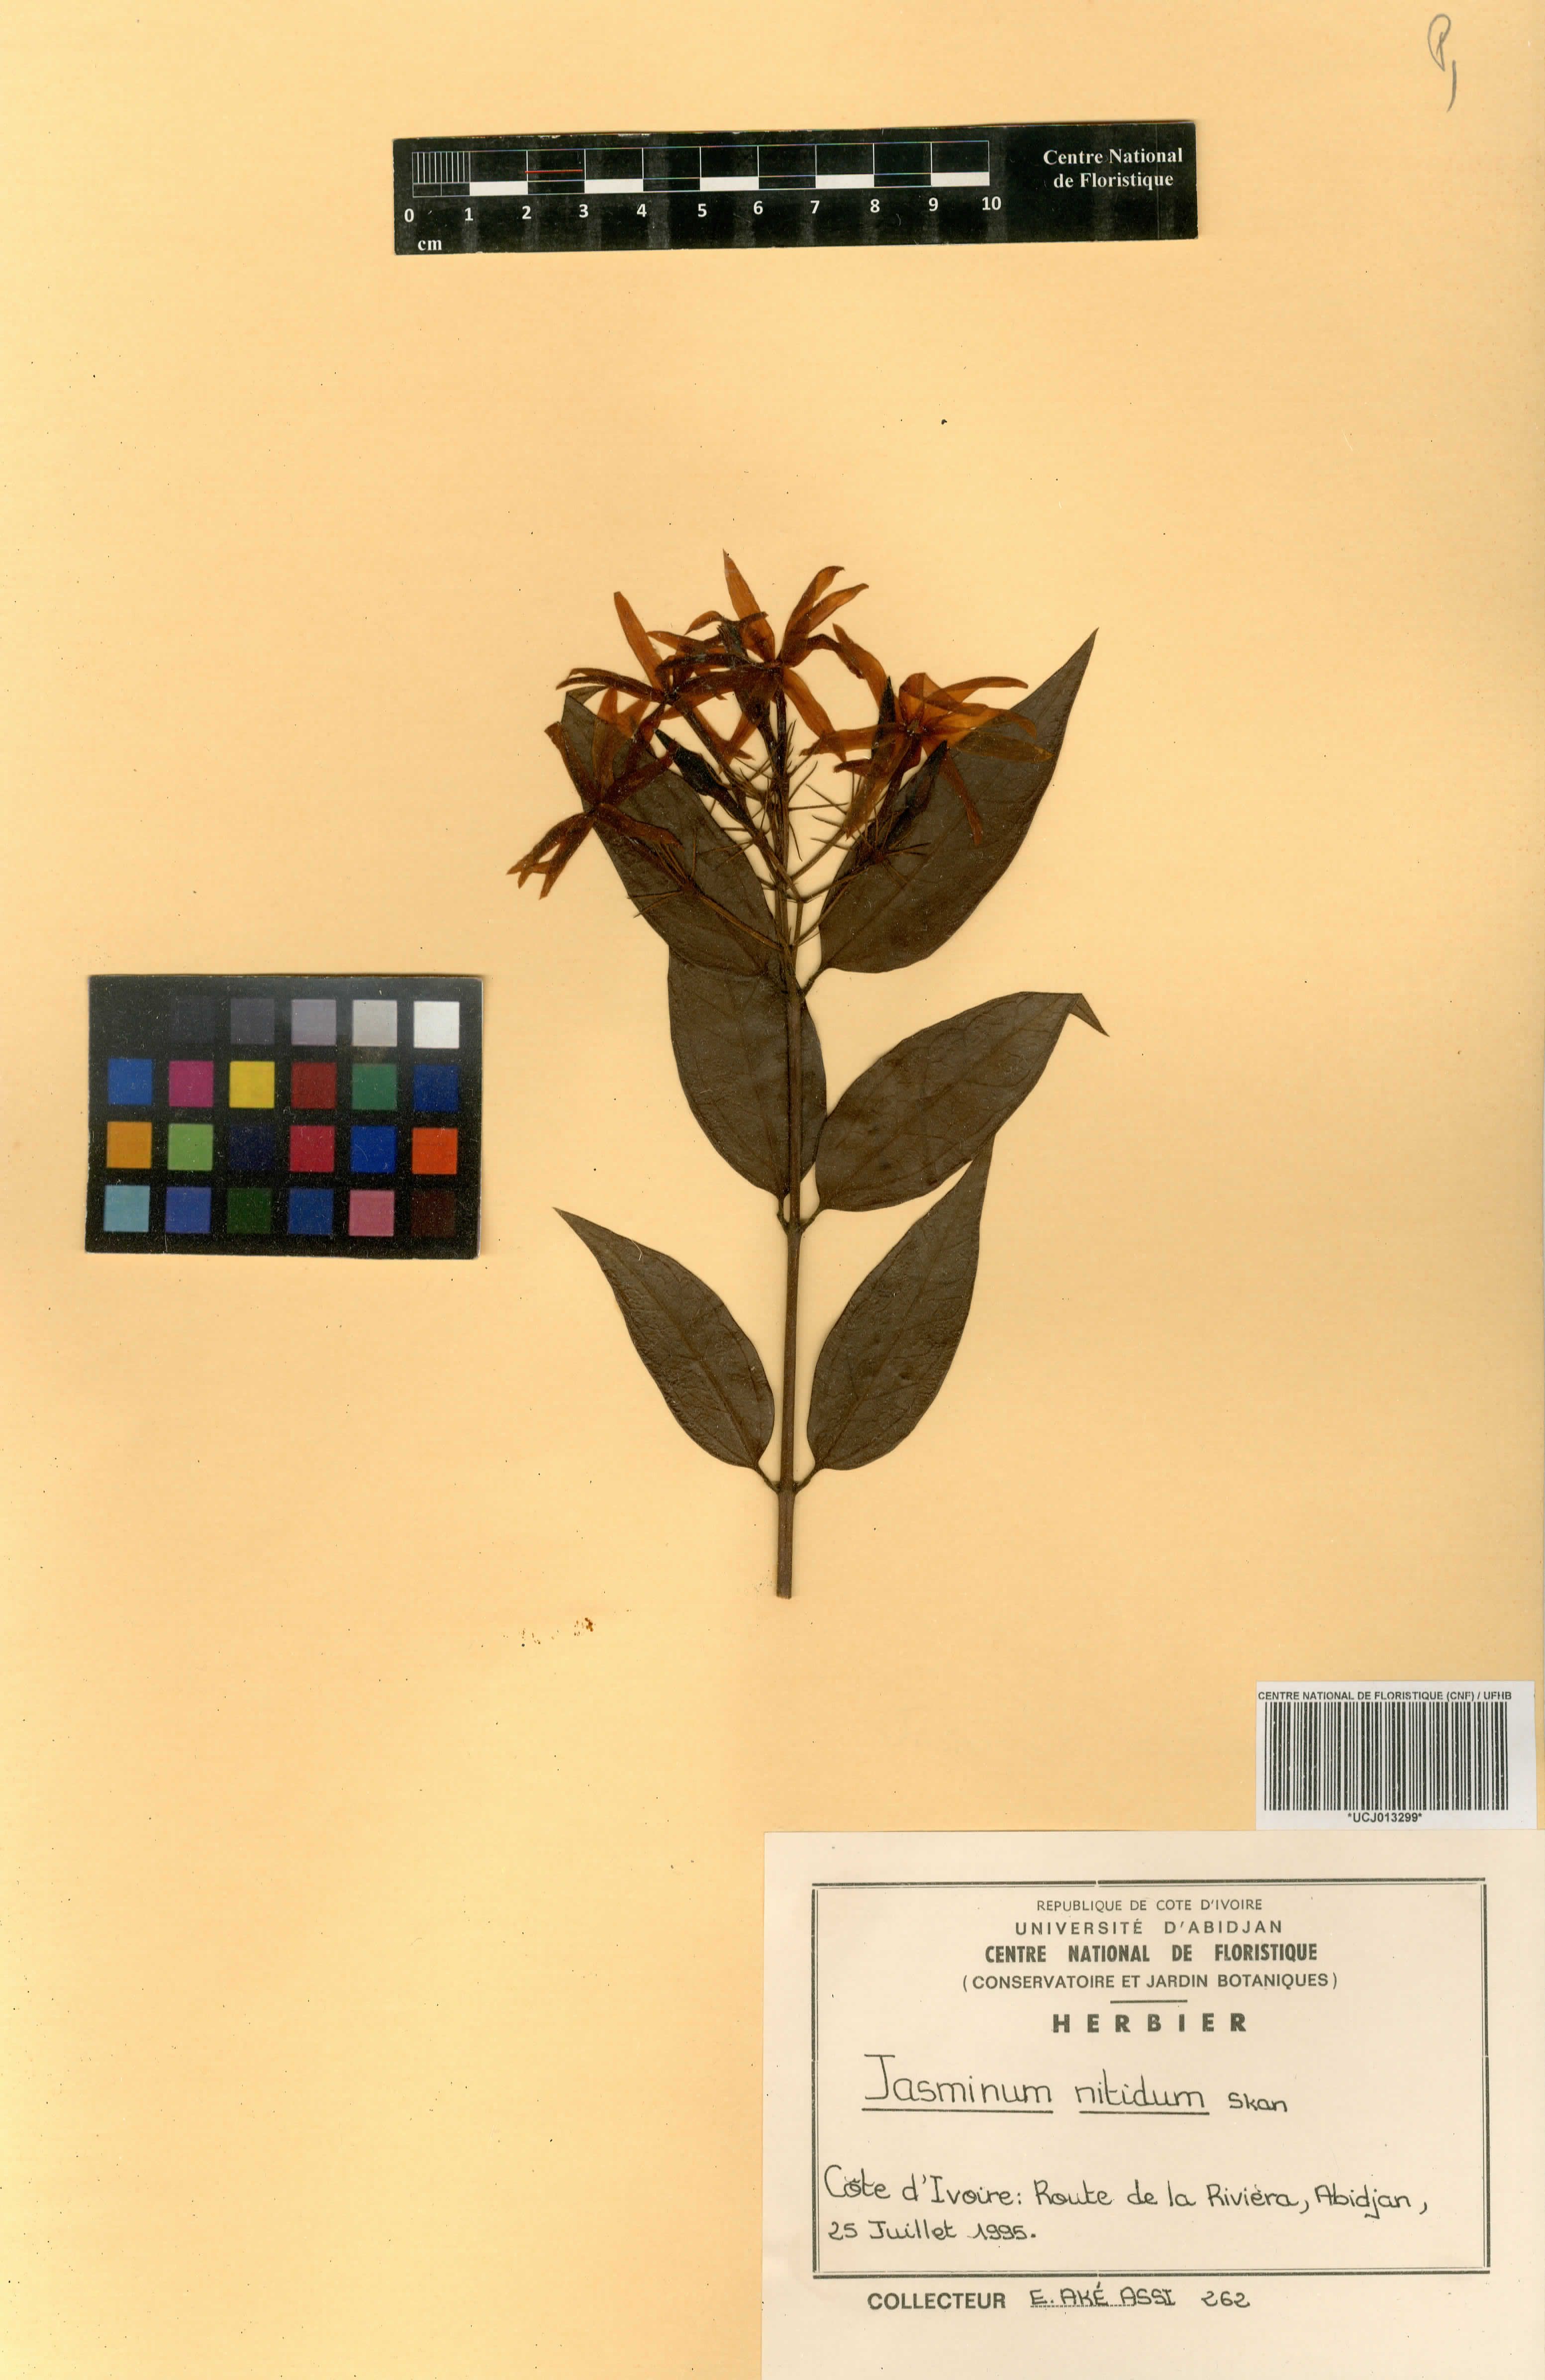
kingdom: Plantae
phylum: Tracheophyta
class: Magnoliopsida
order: Lamiales
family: Oleaceae
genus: Jasminum
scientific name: Jasminum laurifolium
